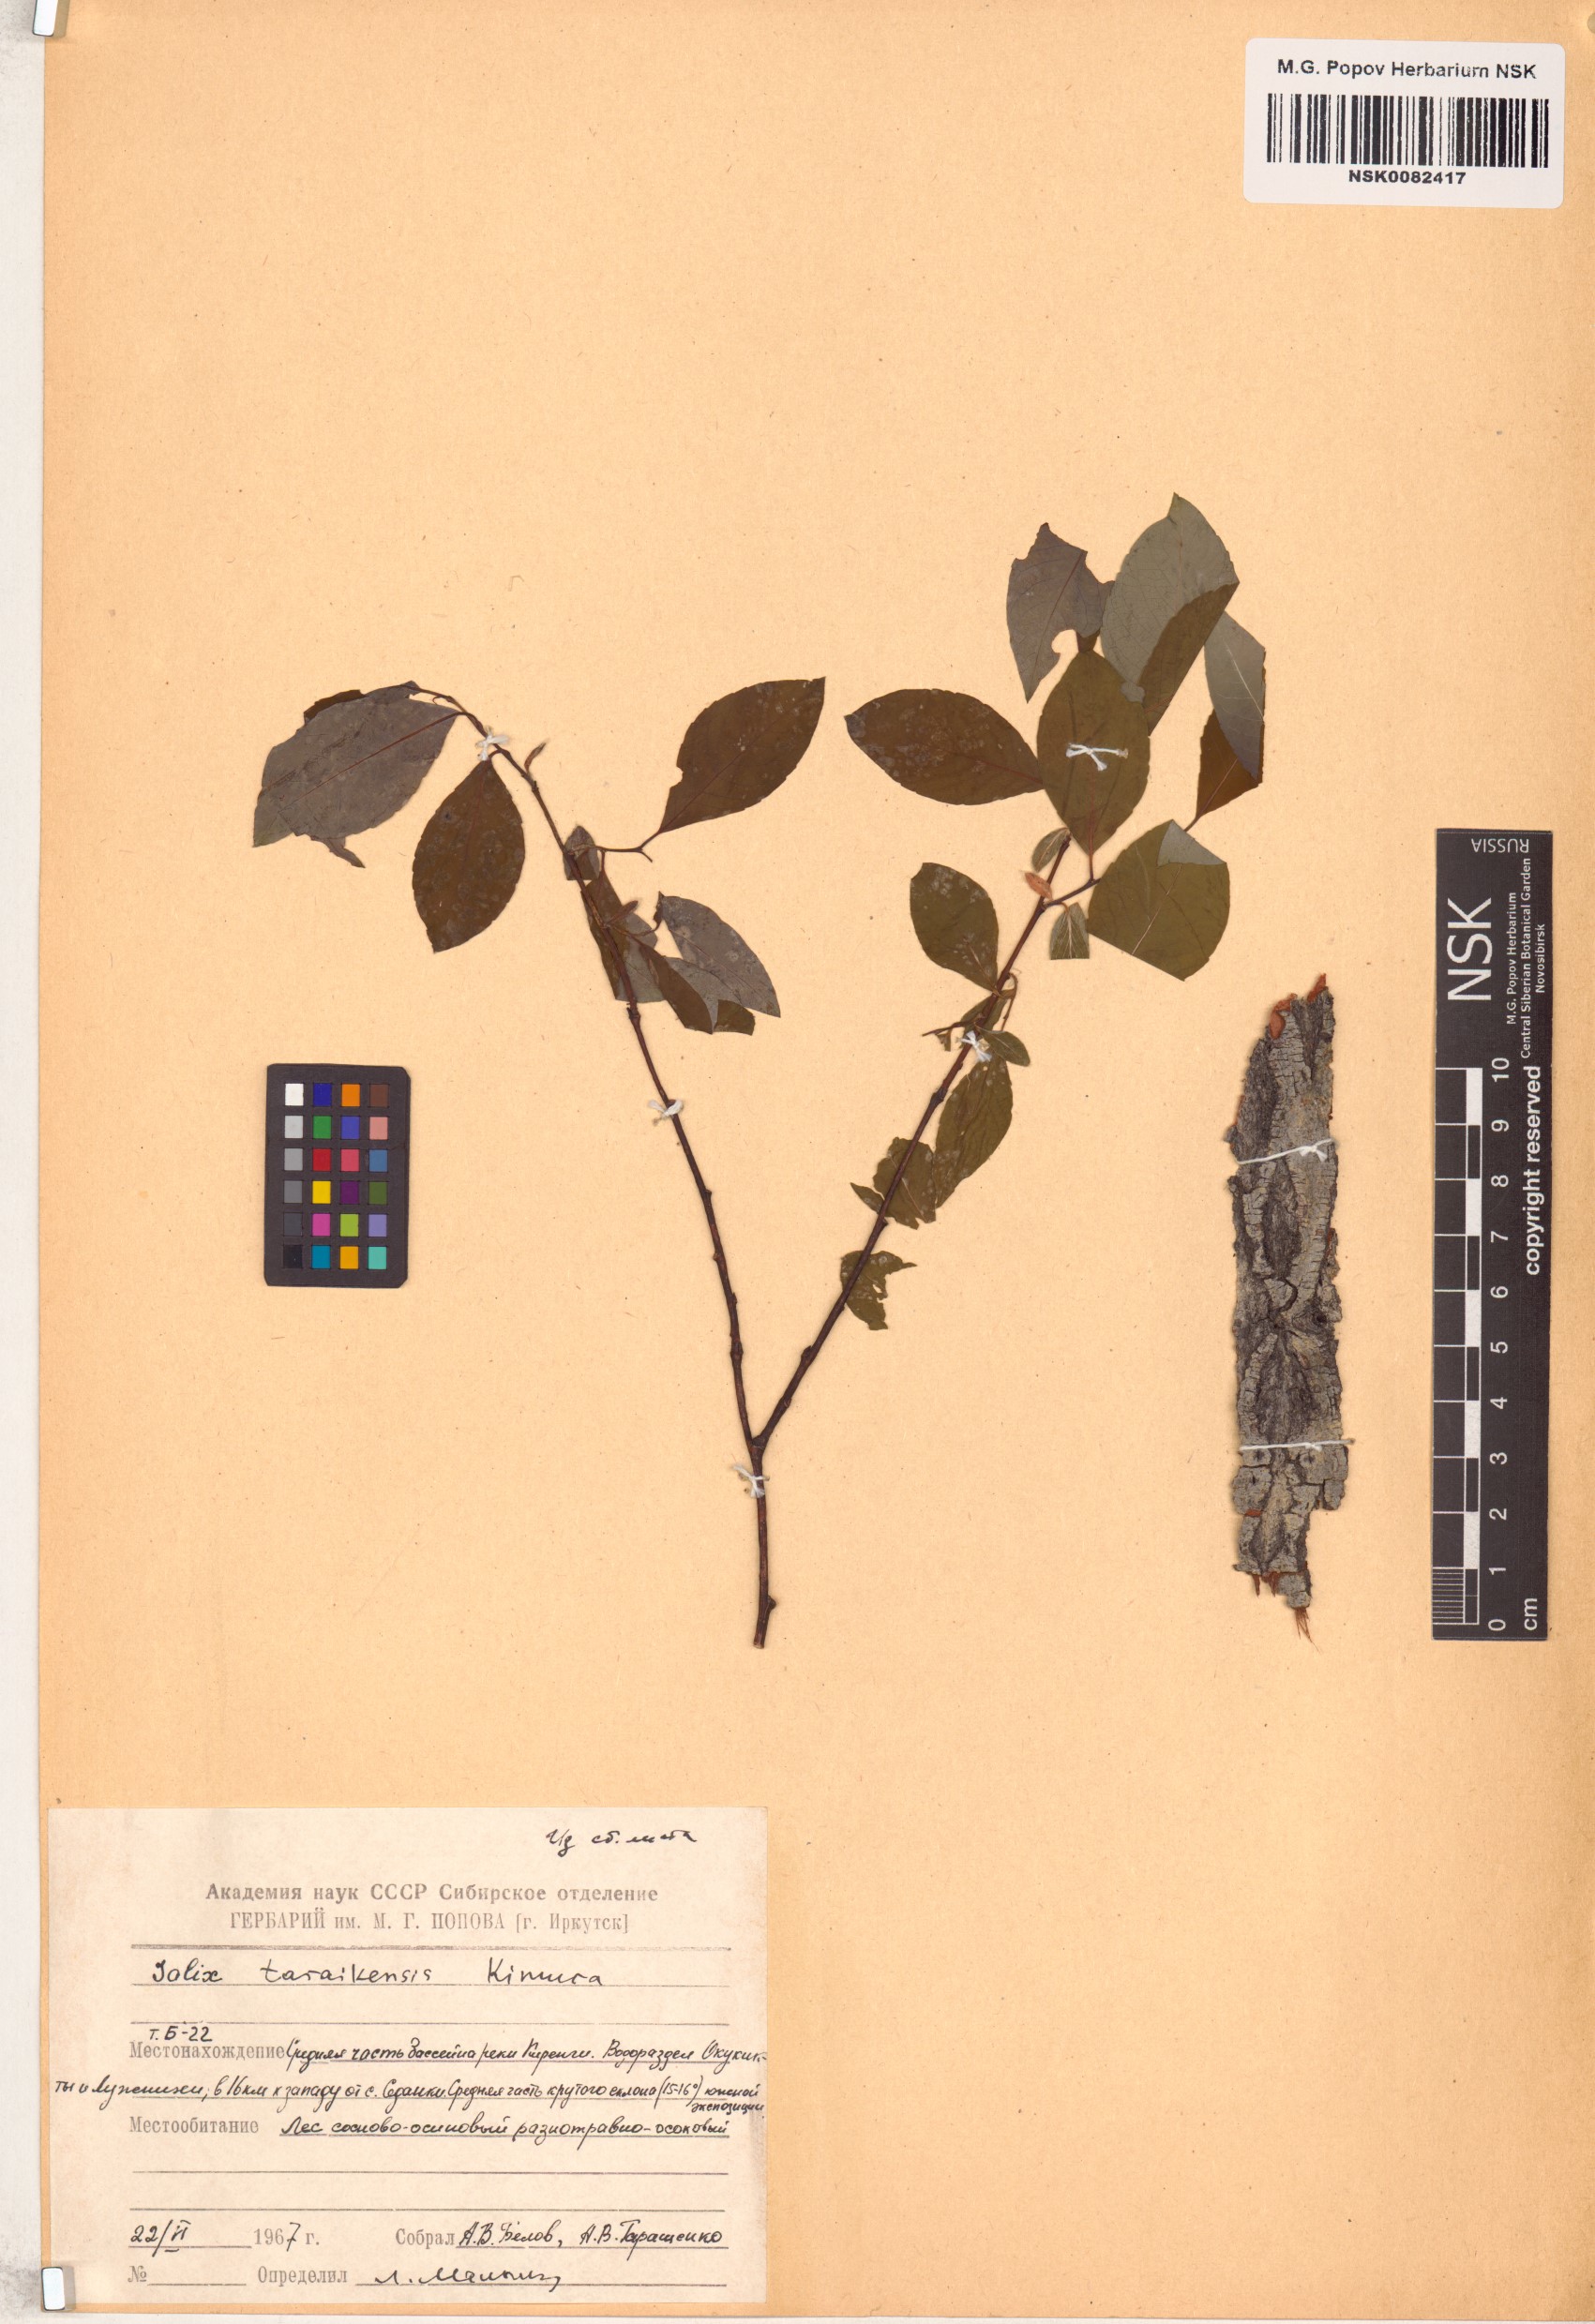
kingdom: Plantae
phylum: Tracheophyta
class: Magnoliopsida
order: Malpighiales
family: Salicaceae
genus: Salix
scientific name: Salix taraikensis
